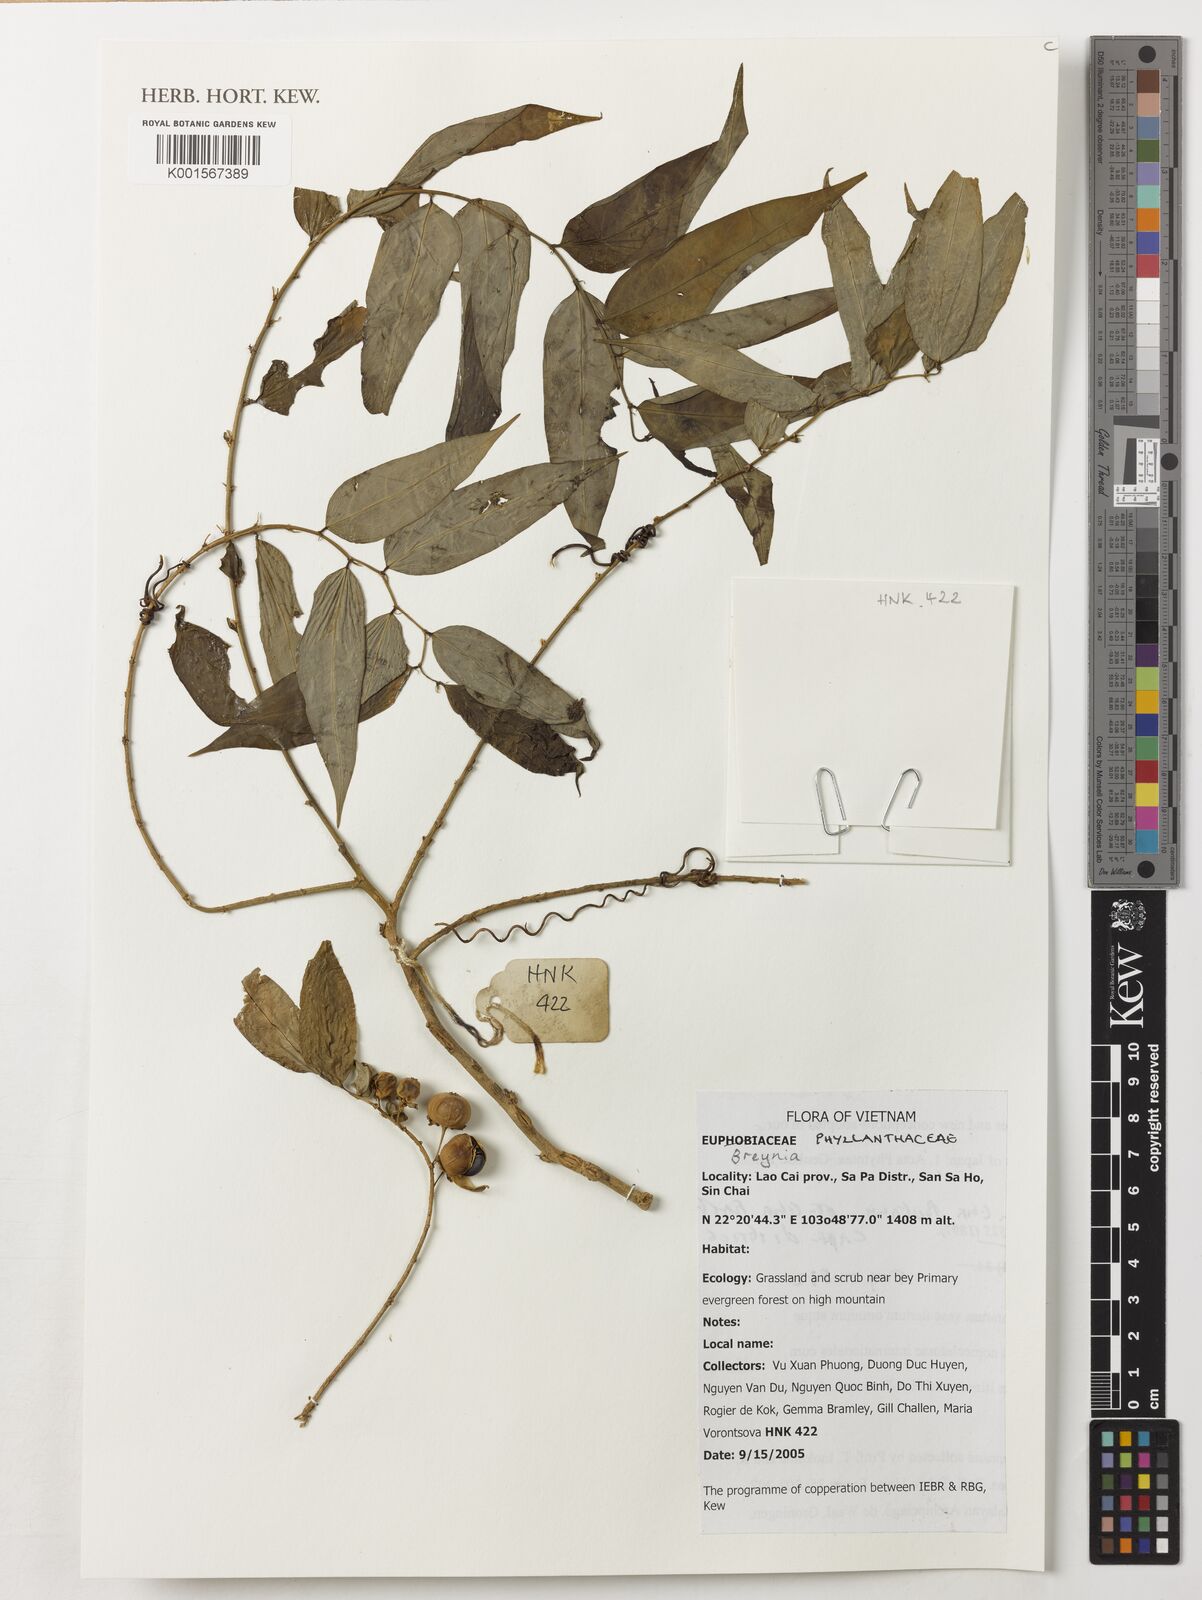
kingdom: Plantae
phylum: Tracheophyta
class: Magnoliopsida
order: Malpighiales
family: Phyllanthaceae
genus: Breynia
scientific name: Breynia
